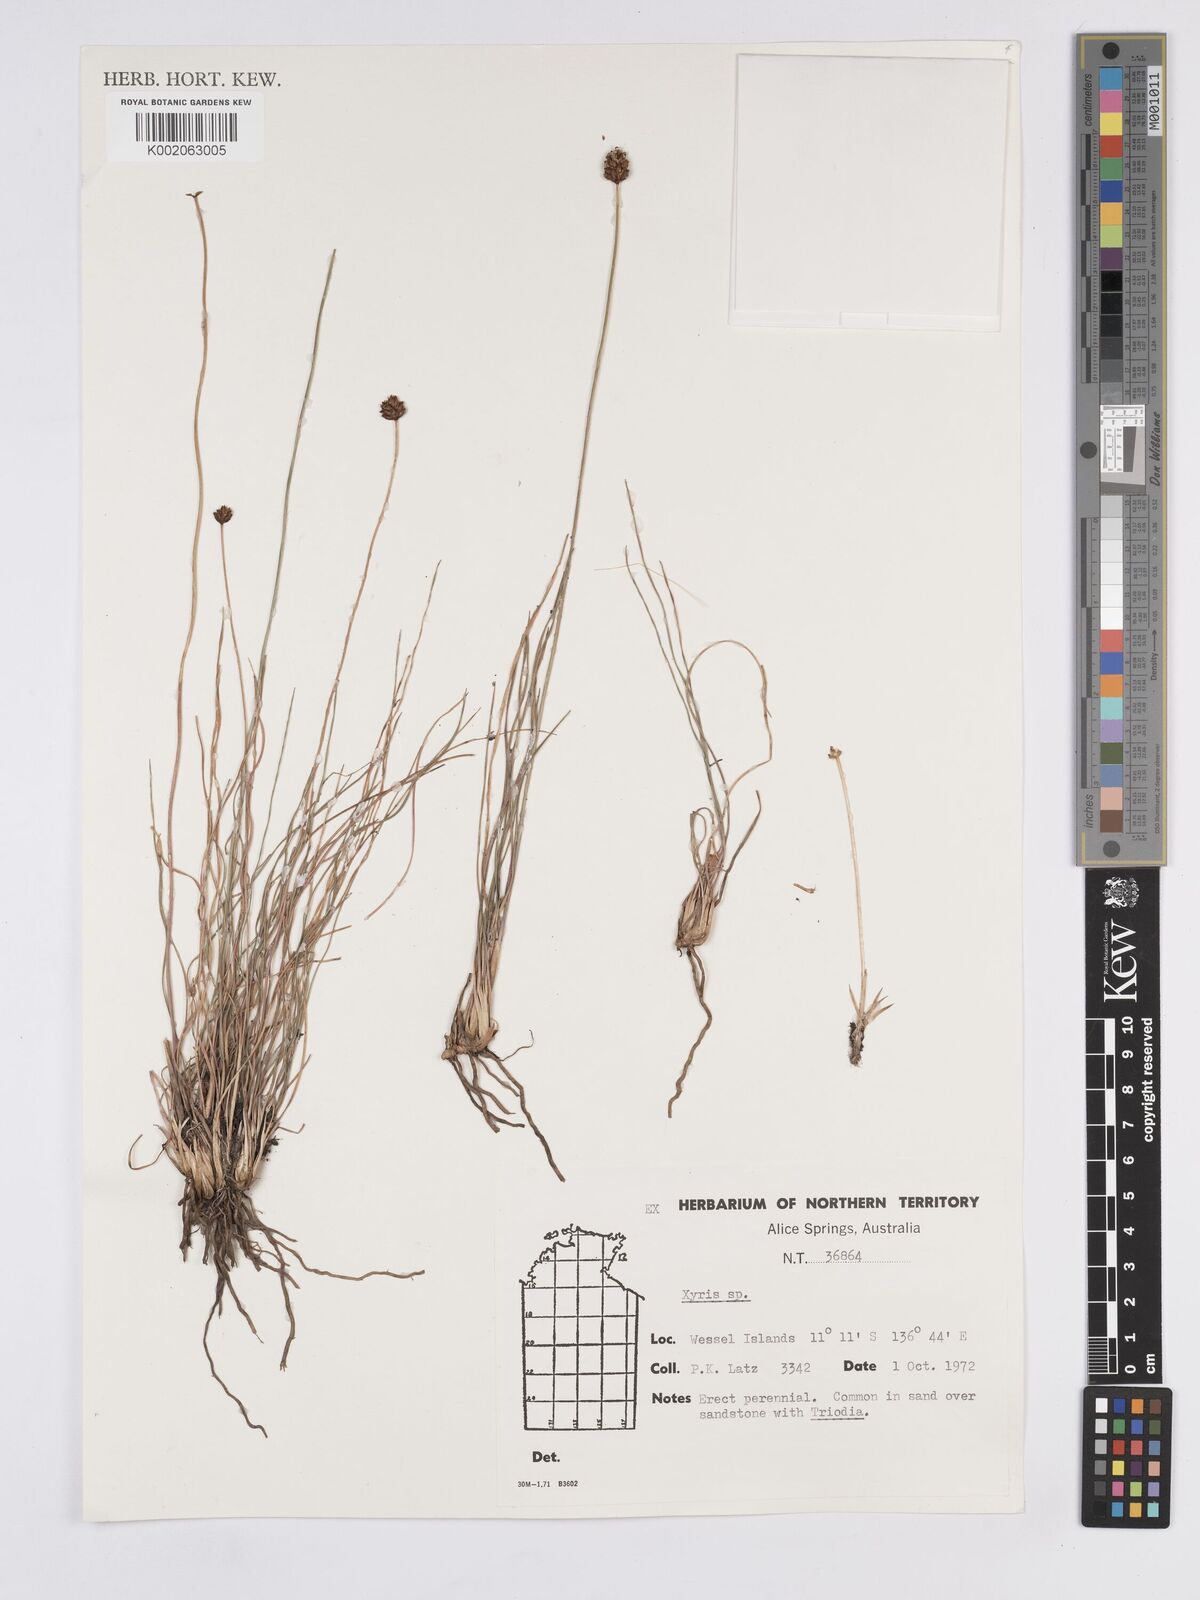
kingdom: Plantae
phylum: Tracheophyta
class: Liliopsida
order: Poales
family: Xyridaceae
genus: Xyris
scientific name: Xyris
